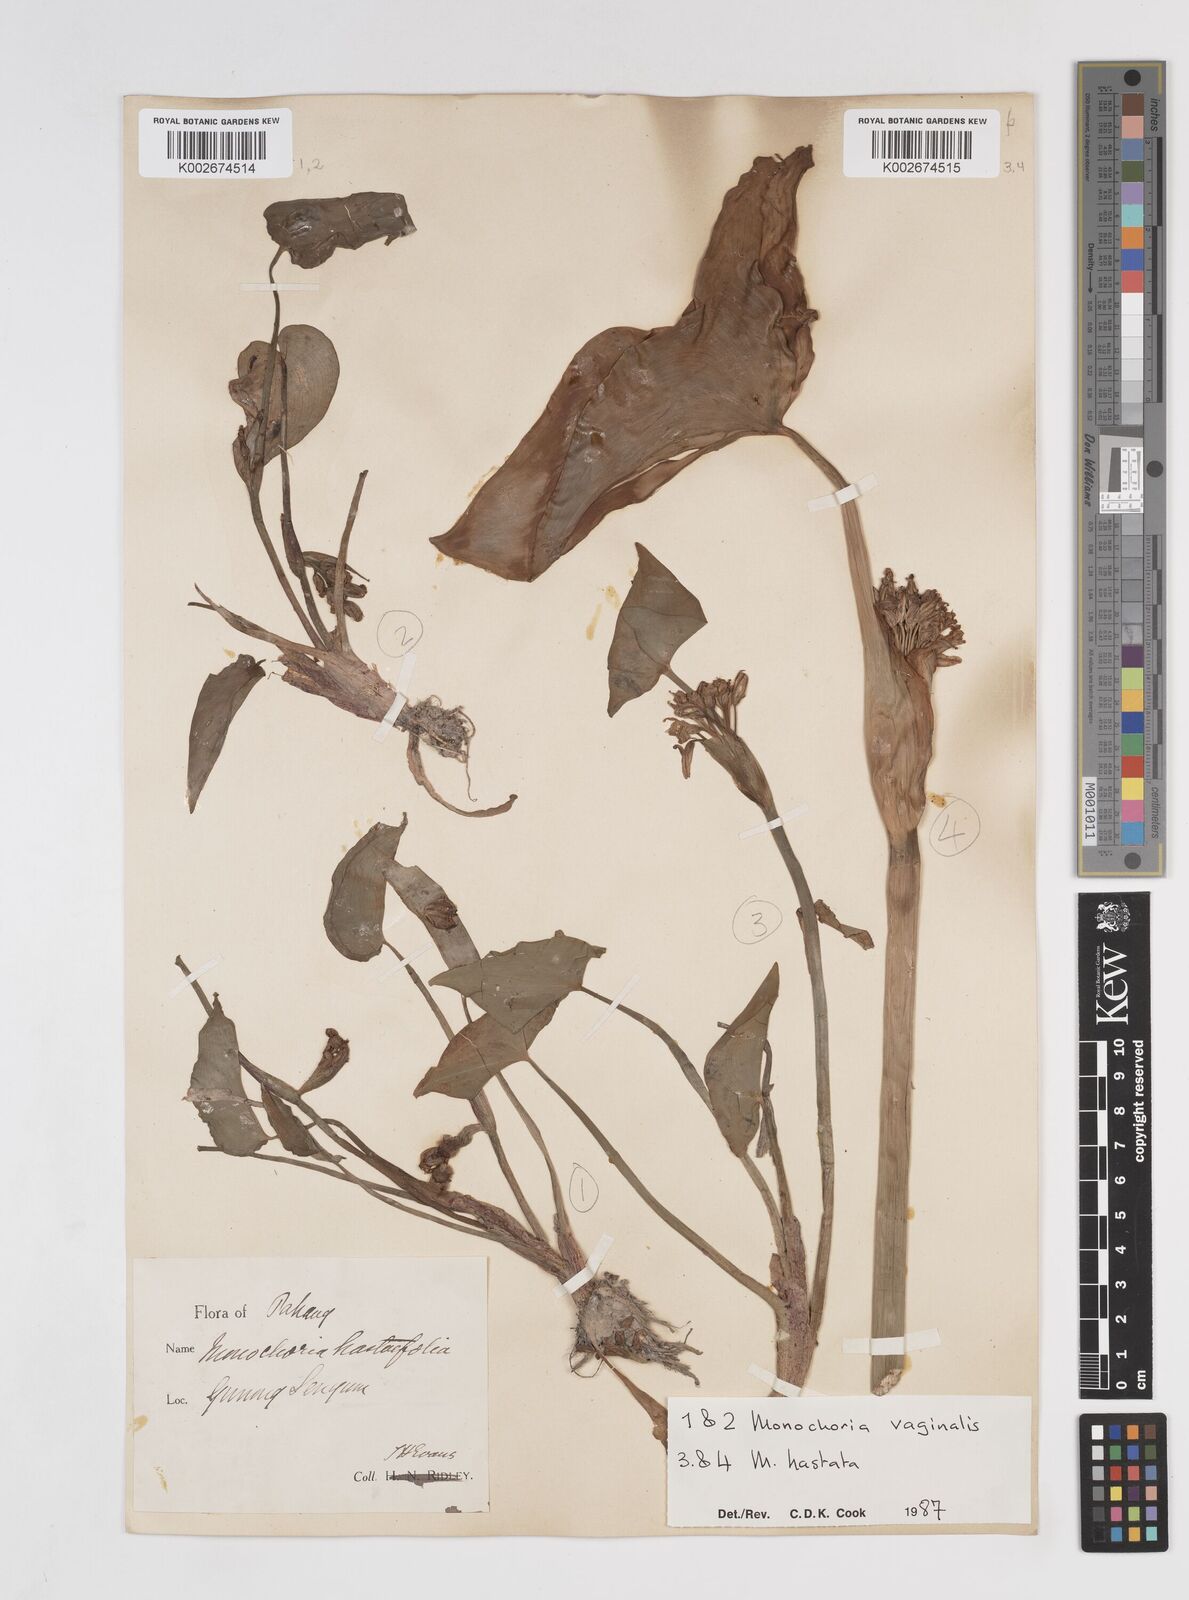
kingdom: Plantae
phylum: Tracheophyta
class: Liliopsida
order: Commelinales
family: Pontederiaceae
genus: Pontederia
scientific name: Pontederia vaginalis
